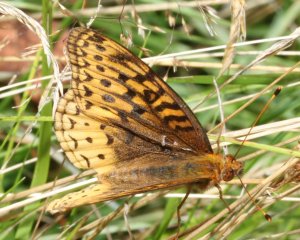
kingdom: Animalia
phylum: Arthropoda
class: Insecta
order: Lepidoptera
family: Nymphalidae
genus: Speyeria
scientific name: Speyeria cybele
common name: Great Spangled Fritillary
